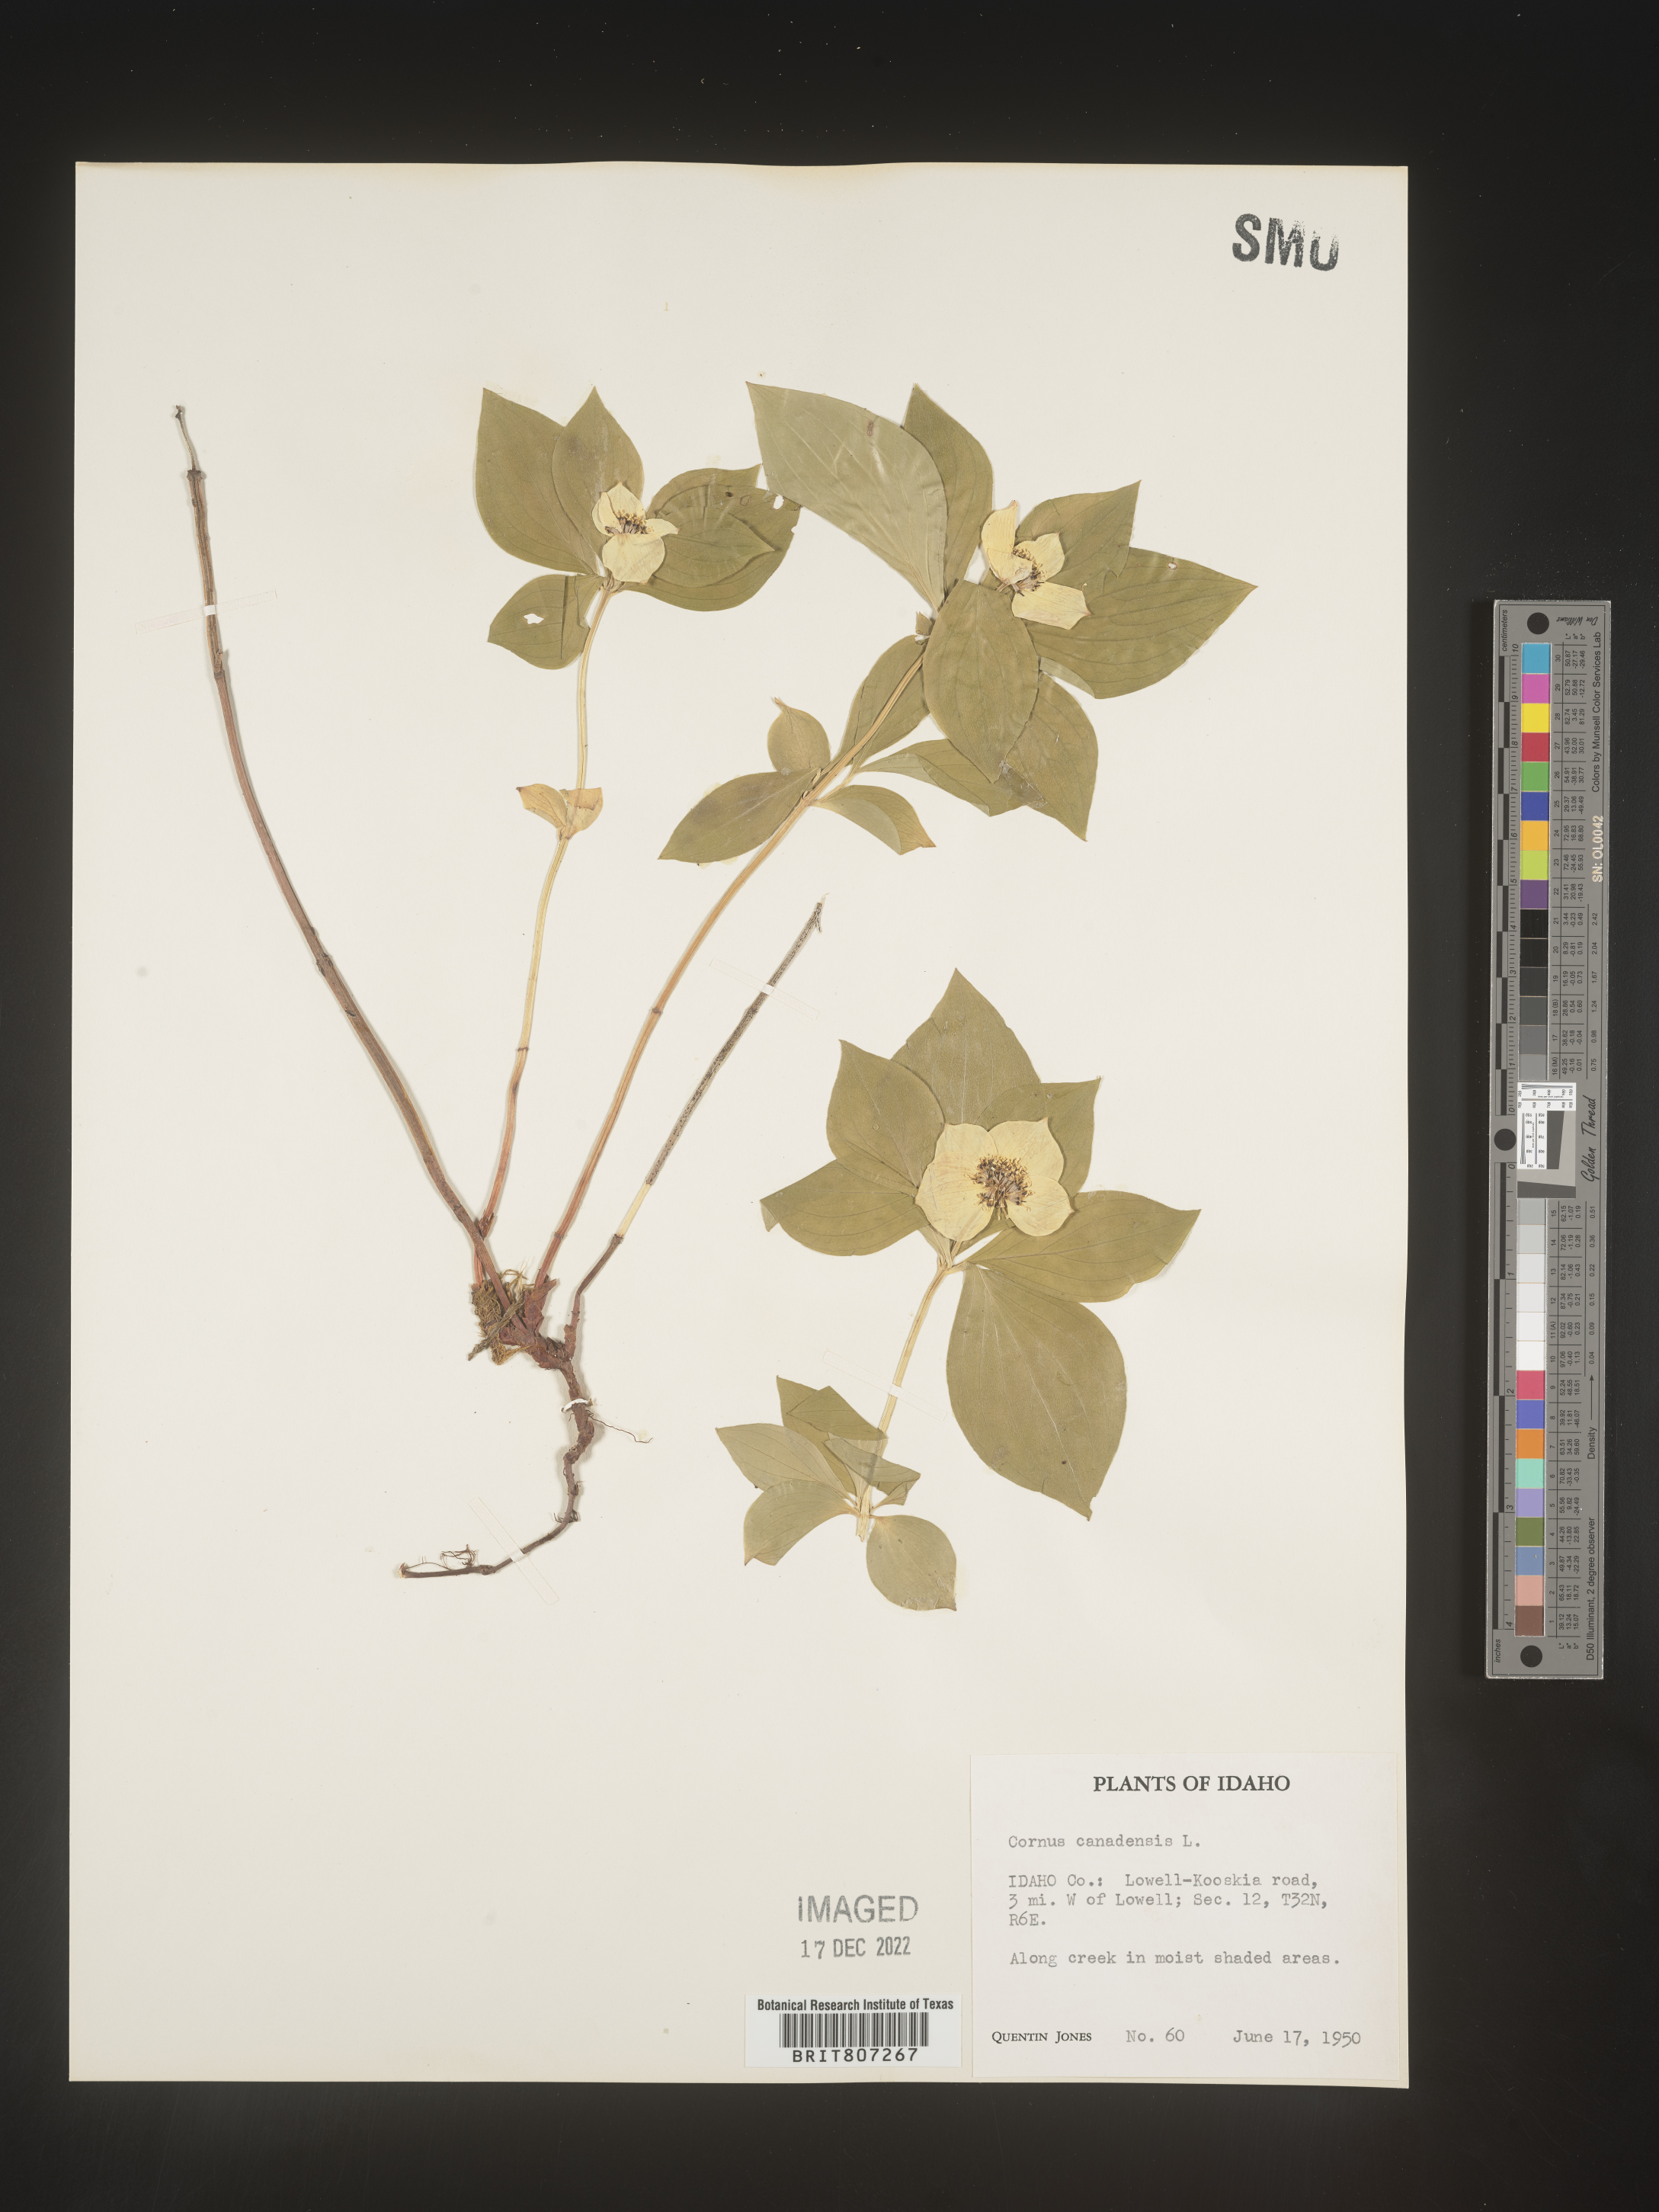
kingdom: Plantae
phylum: Tracheophyta
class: Magnoliopsida
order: Cornales
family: Cornaceae
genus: Cornus
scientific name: Cornus canadensis
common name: Creeping dogwood
